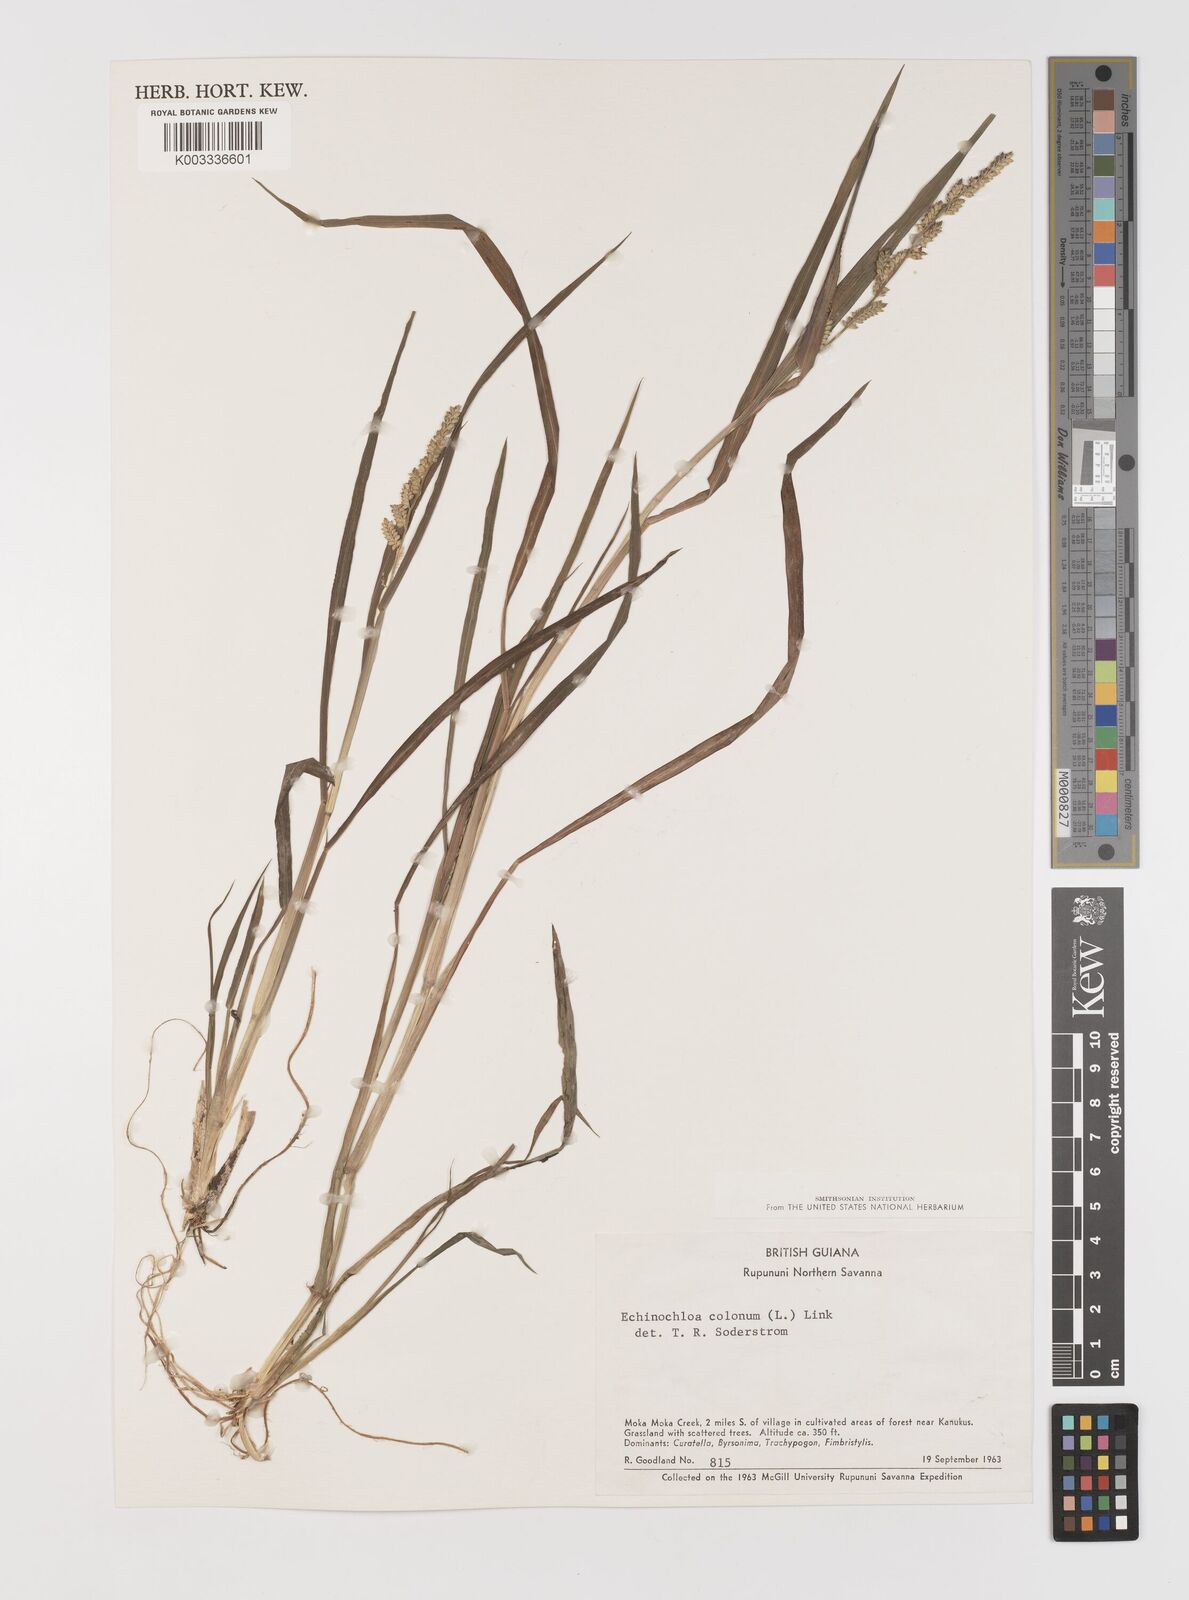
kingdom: Plantae
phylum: Tracheophyta
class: Liliopsida
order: Poales
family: Poaceae
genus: Echinochloa
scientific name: Echinochloa colonum
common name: Jungle rice
